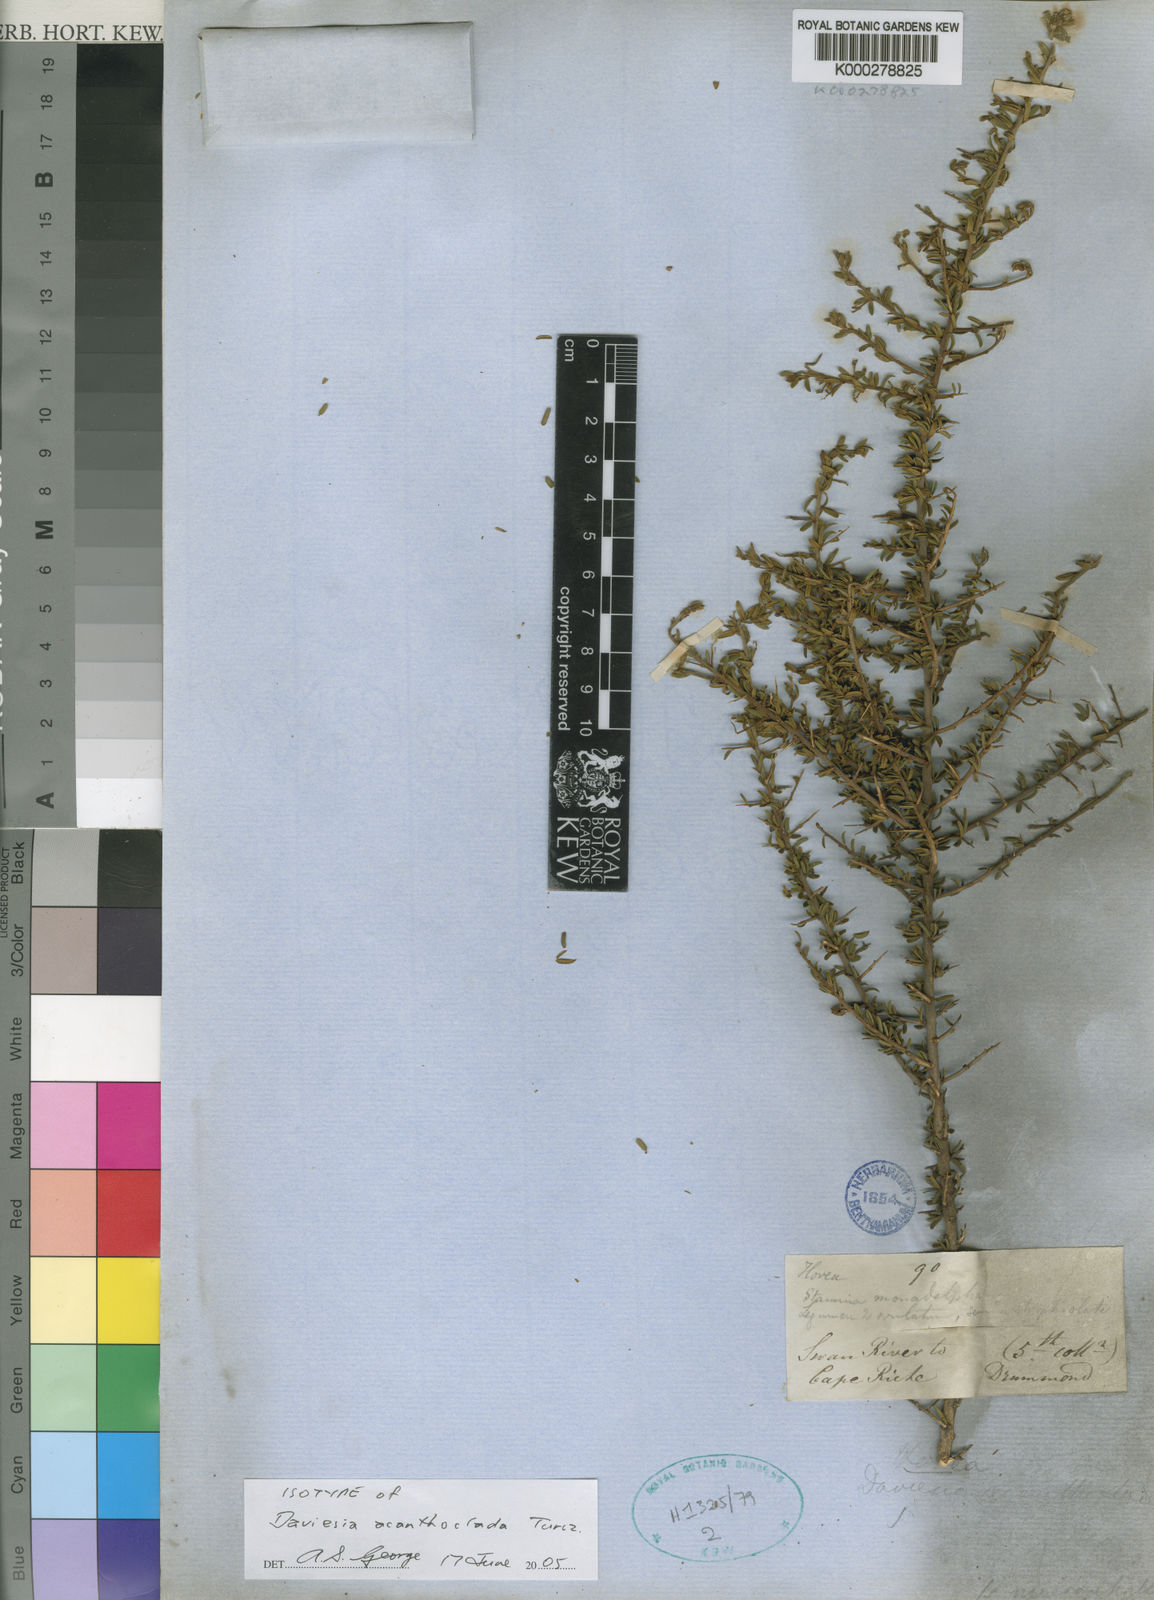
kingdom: Plantae
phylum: Tracheophyta
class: Magnoliopsida
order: Fabales
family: Fabaceae
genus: Hovea
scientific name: Hovea acanthoclada
